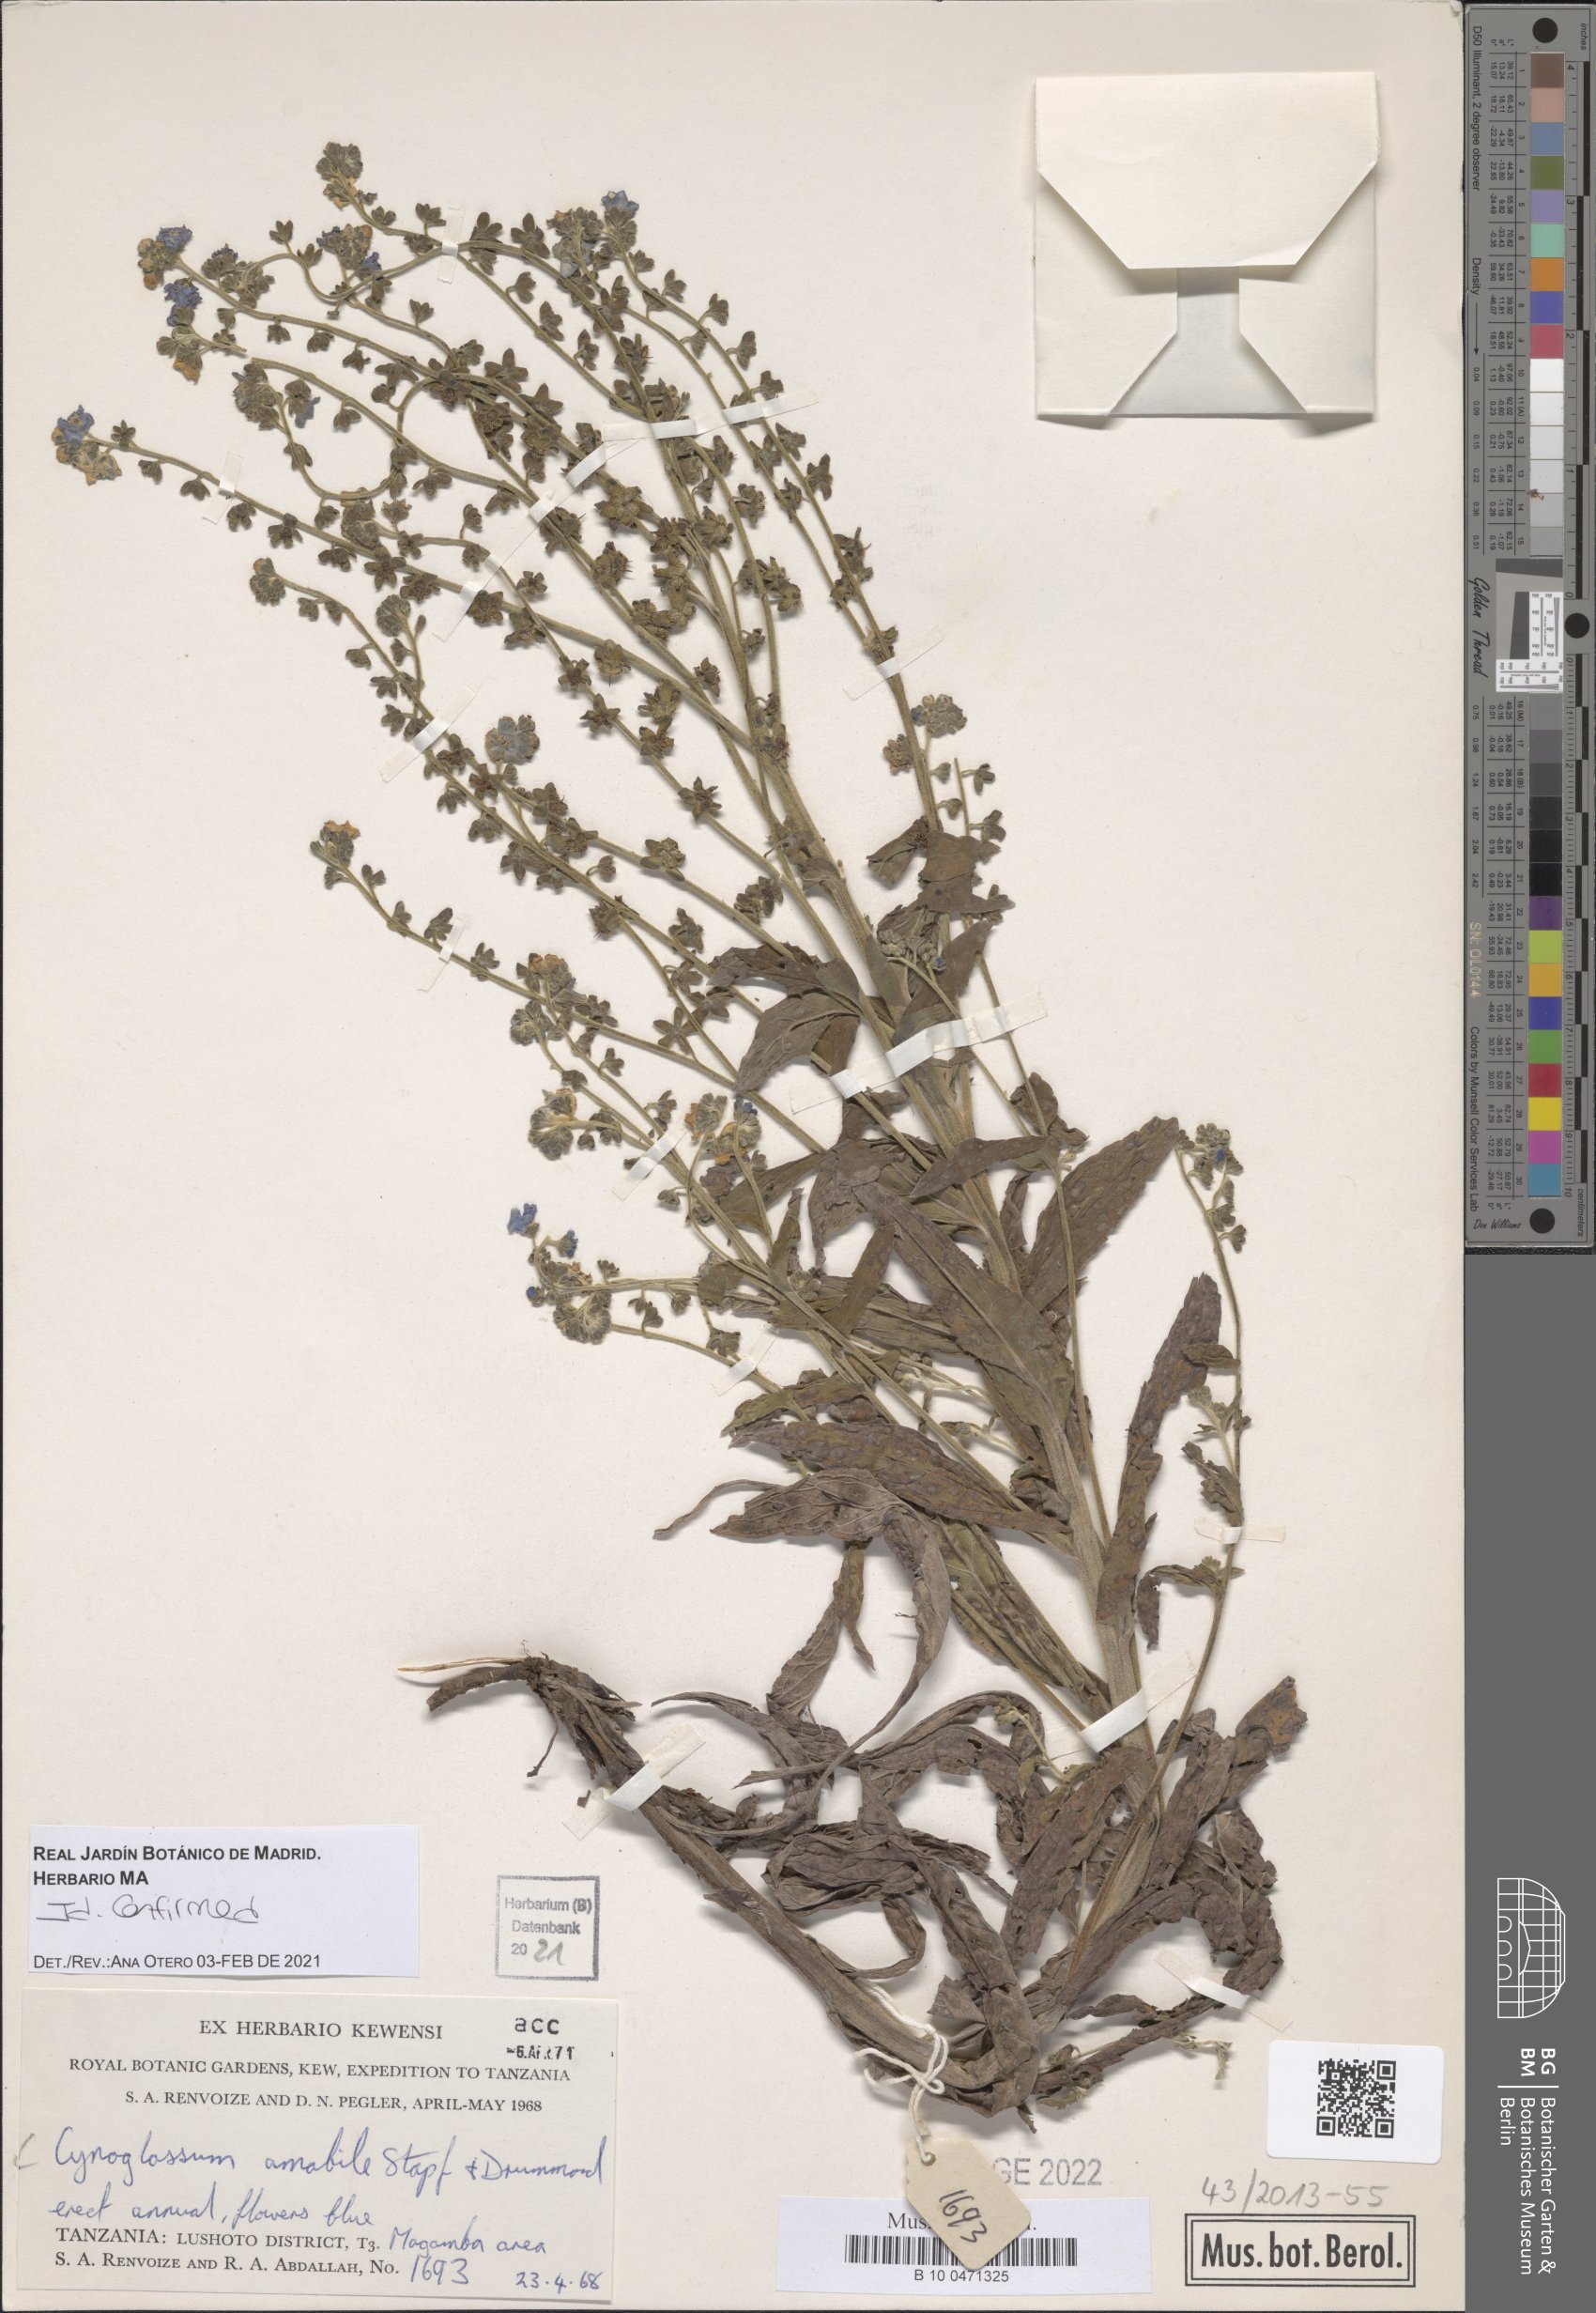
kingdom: Plantae
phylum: Tracheophyta
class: Magnoliopsida
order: Boraginales
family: Boraginaceae
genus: Cynoglossum
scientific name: Cynoglossum amabile
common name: Chinese hound's tongue
